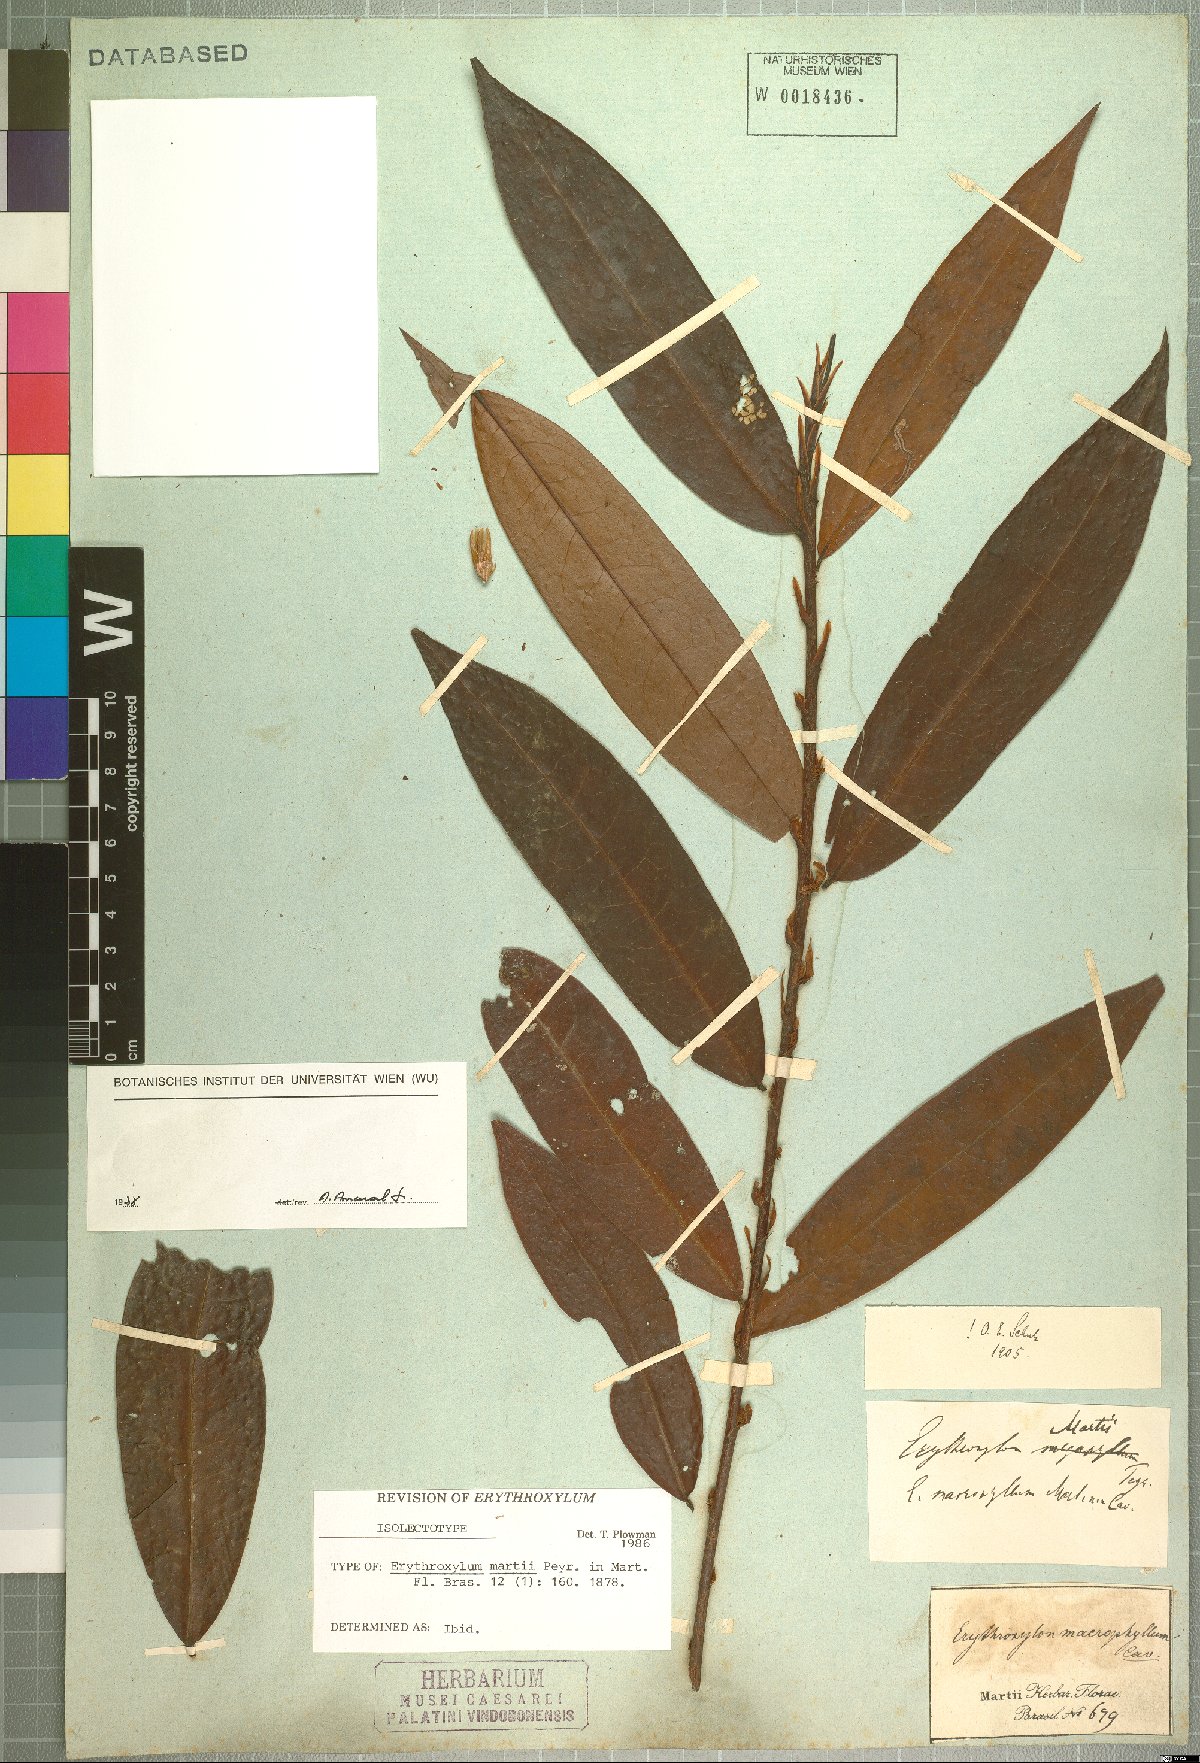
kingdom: Plantae
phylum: Tracheophyta
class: Magnoliopsida
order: Malpighiales
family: Erythroxylaceae
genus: Erythroxylum
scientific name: Erythroxylum martii
